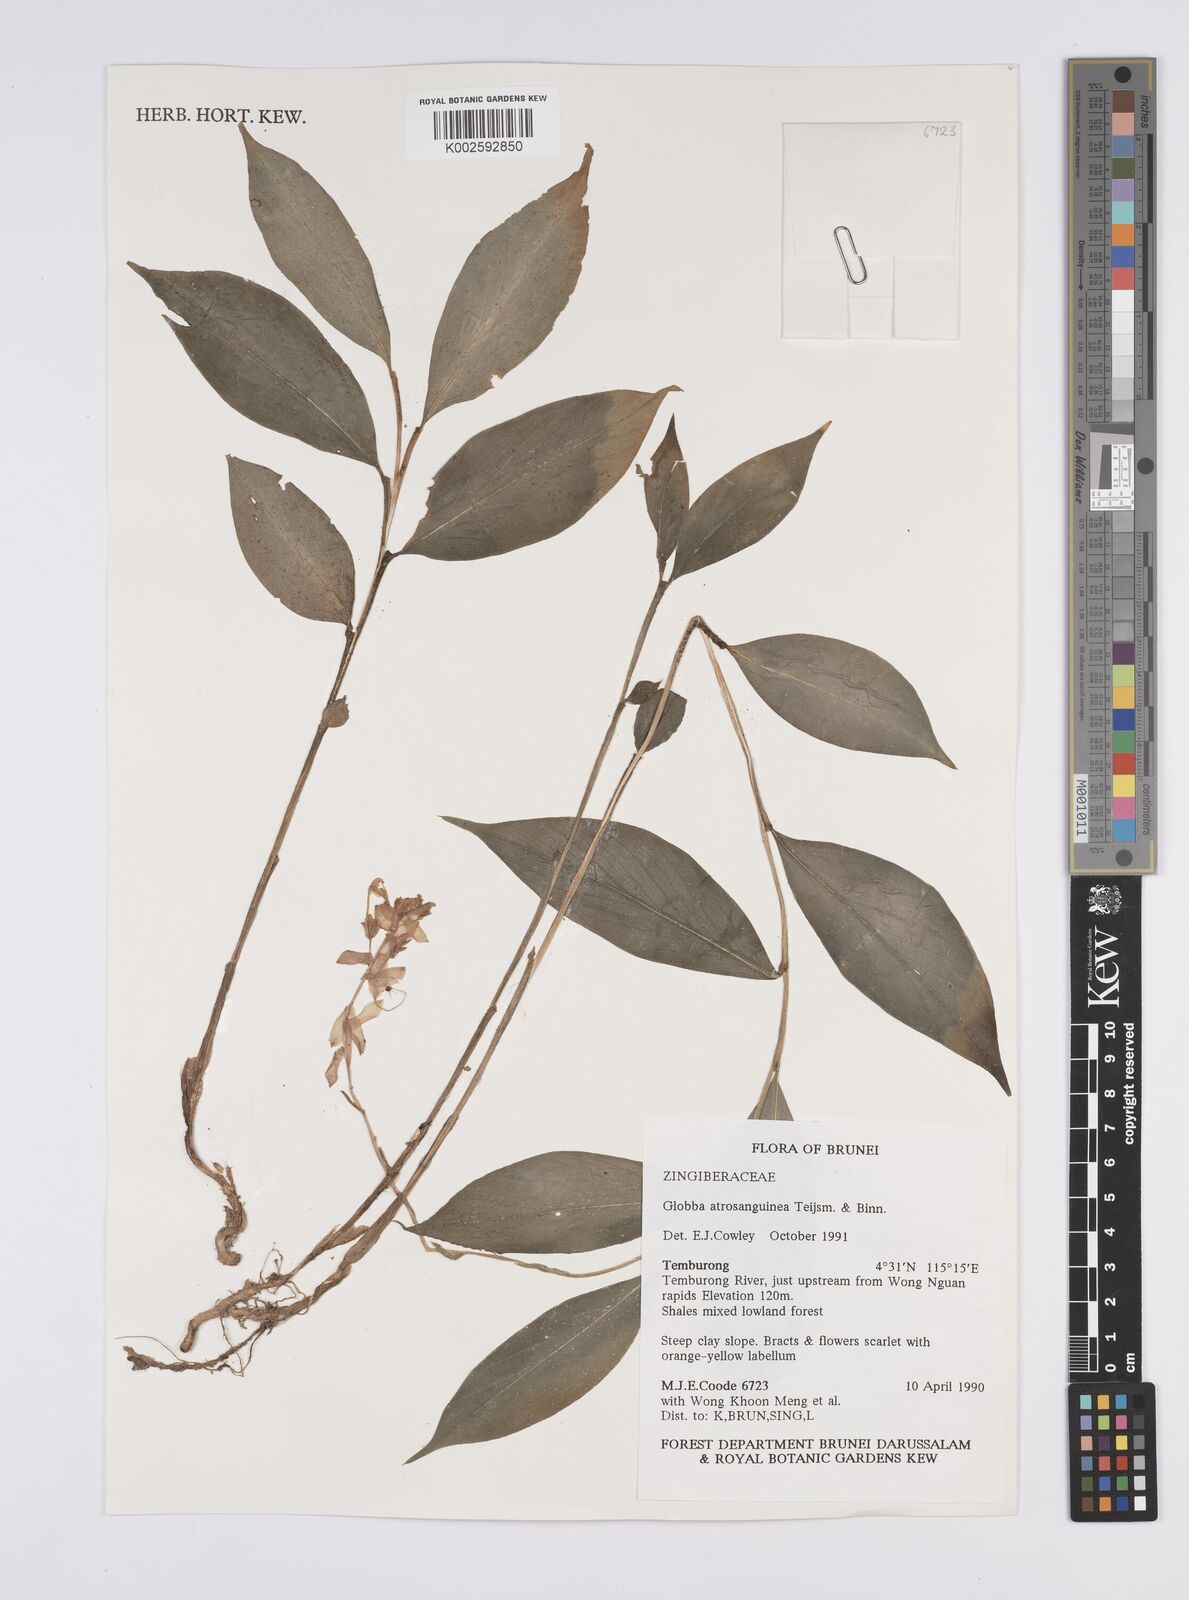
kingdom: Plantae
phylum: Tracheophyta
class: Liliopsida
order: Zingiberales
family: Zingiberaceae
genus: Globba
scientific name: Globba atrosanguinea
